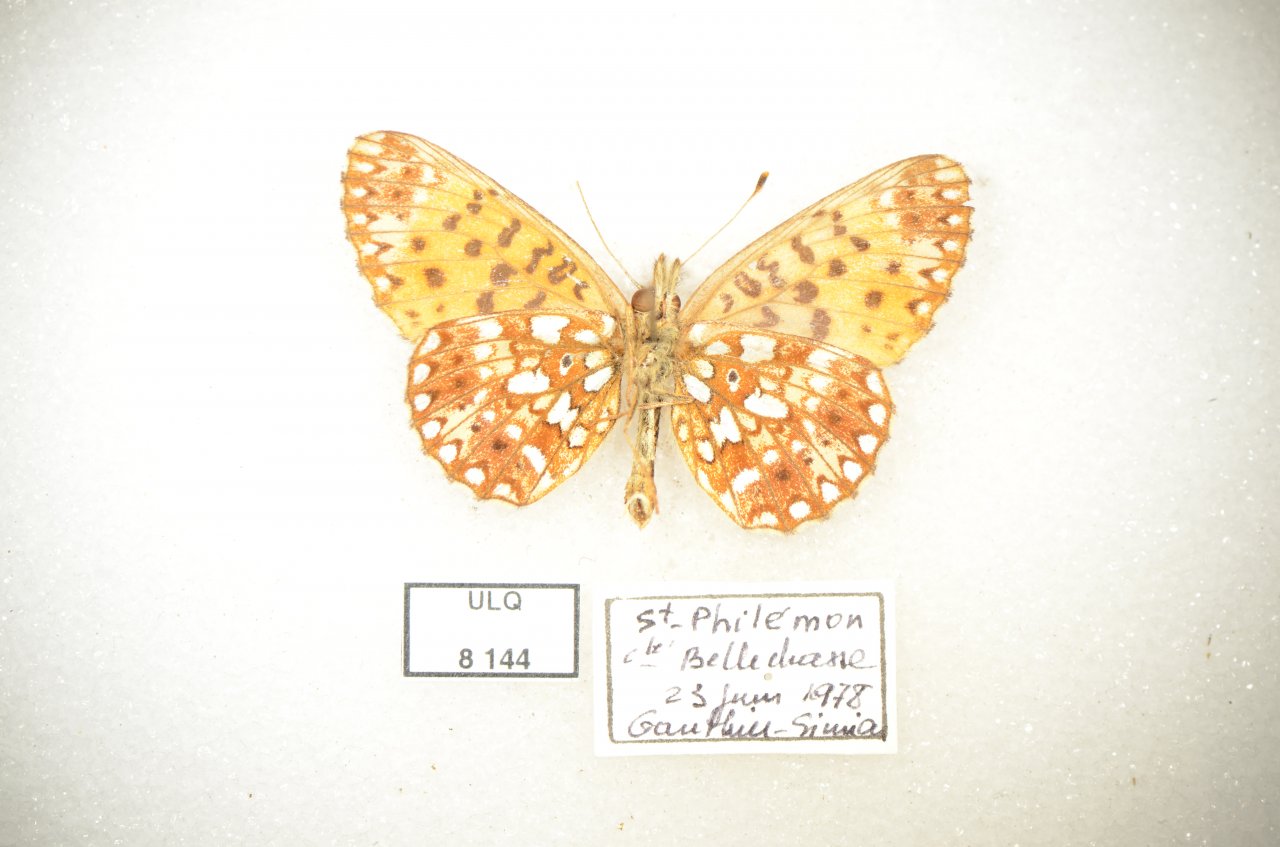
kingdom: Animalia
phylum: Arthropoda
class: Insecta
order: Lepidoptera
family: Nymphalidae
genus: Boloria
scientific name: Boloria selene
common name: Silver-bordered Fritillary
